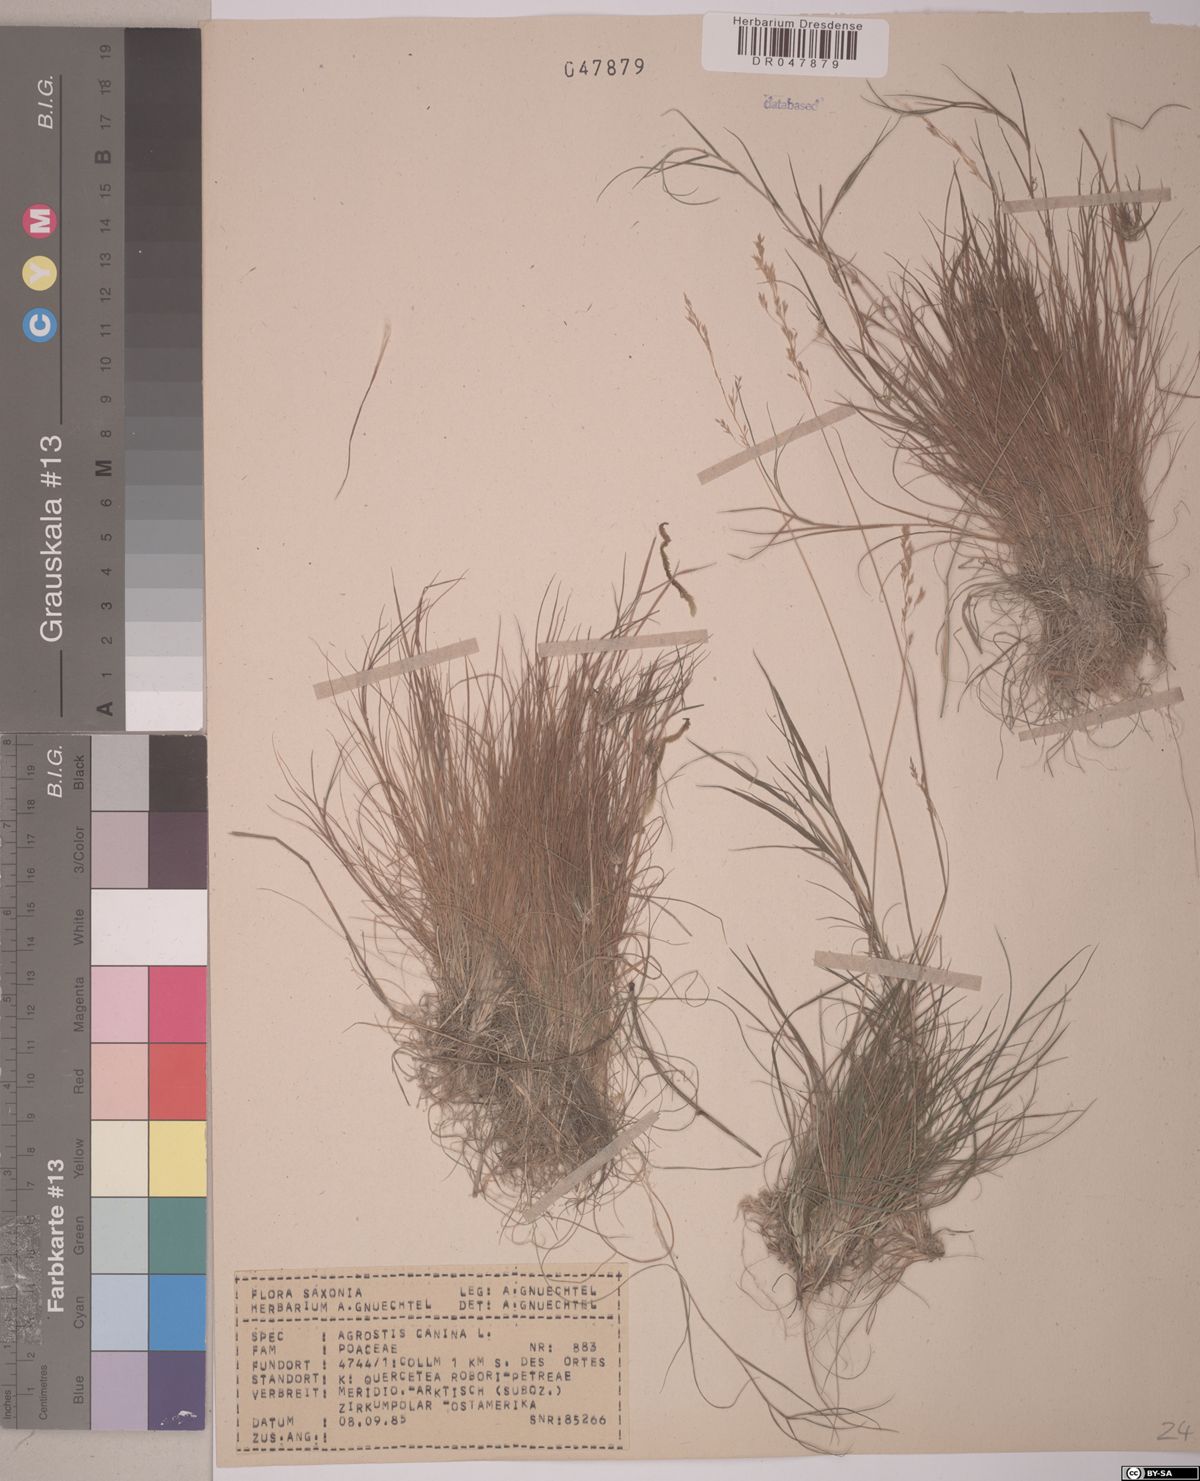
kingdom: Plantae
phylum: Tracheophyta
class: Liliopsida
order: Poales
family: Poaceae
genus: Agrostis
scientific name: Agrostis canina
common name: Velvet bent
